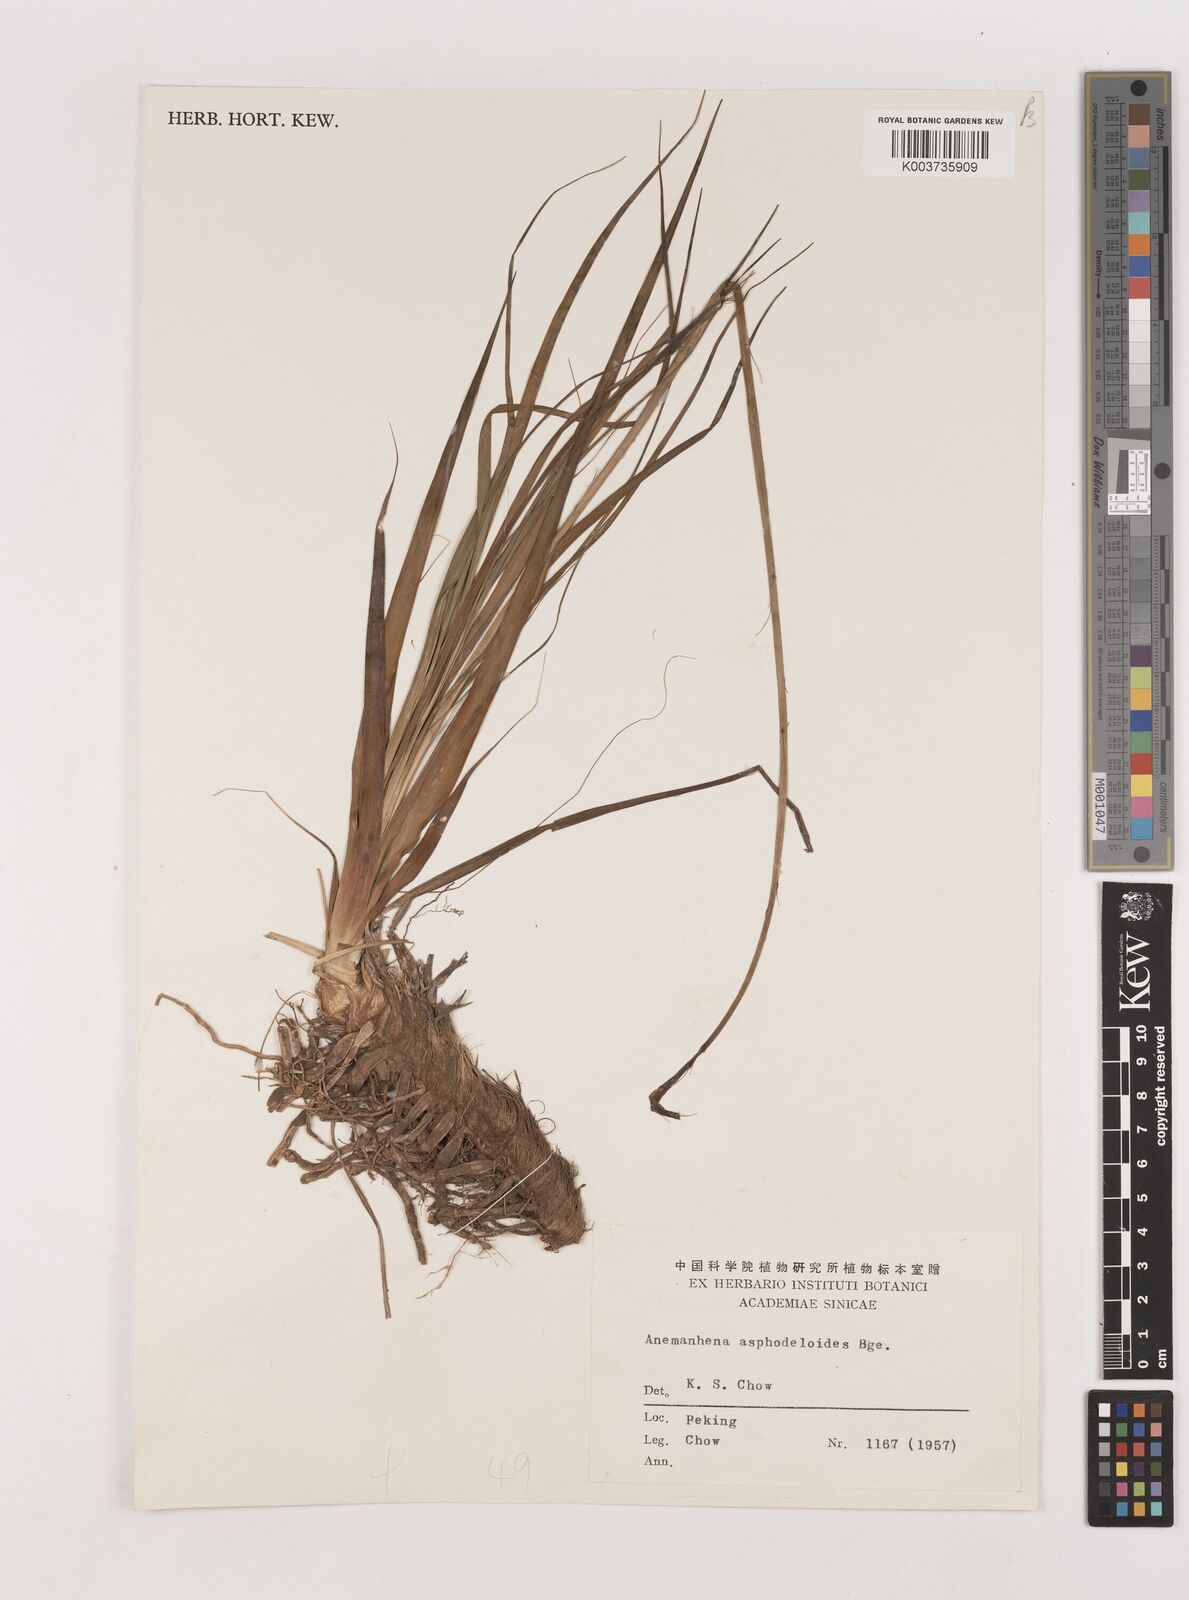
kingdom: Plantae
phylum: Tracheophyta
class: Liliopsida
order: Asparagales
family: Asparagaceae
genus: Anemarrhena
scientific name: Anemarrhena asphodeloides
